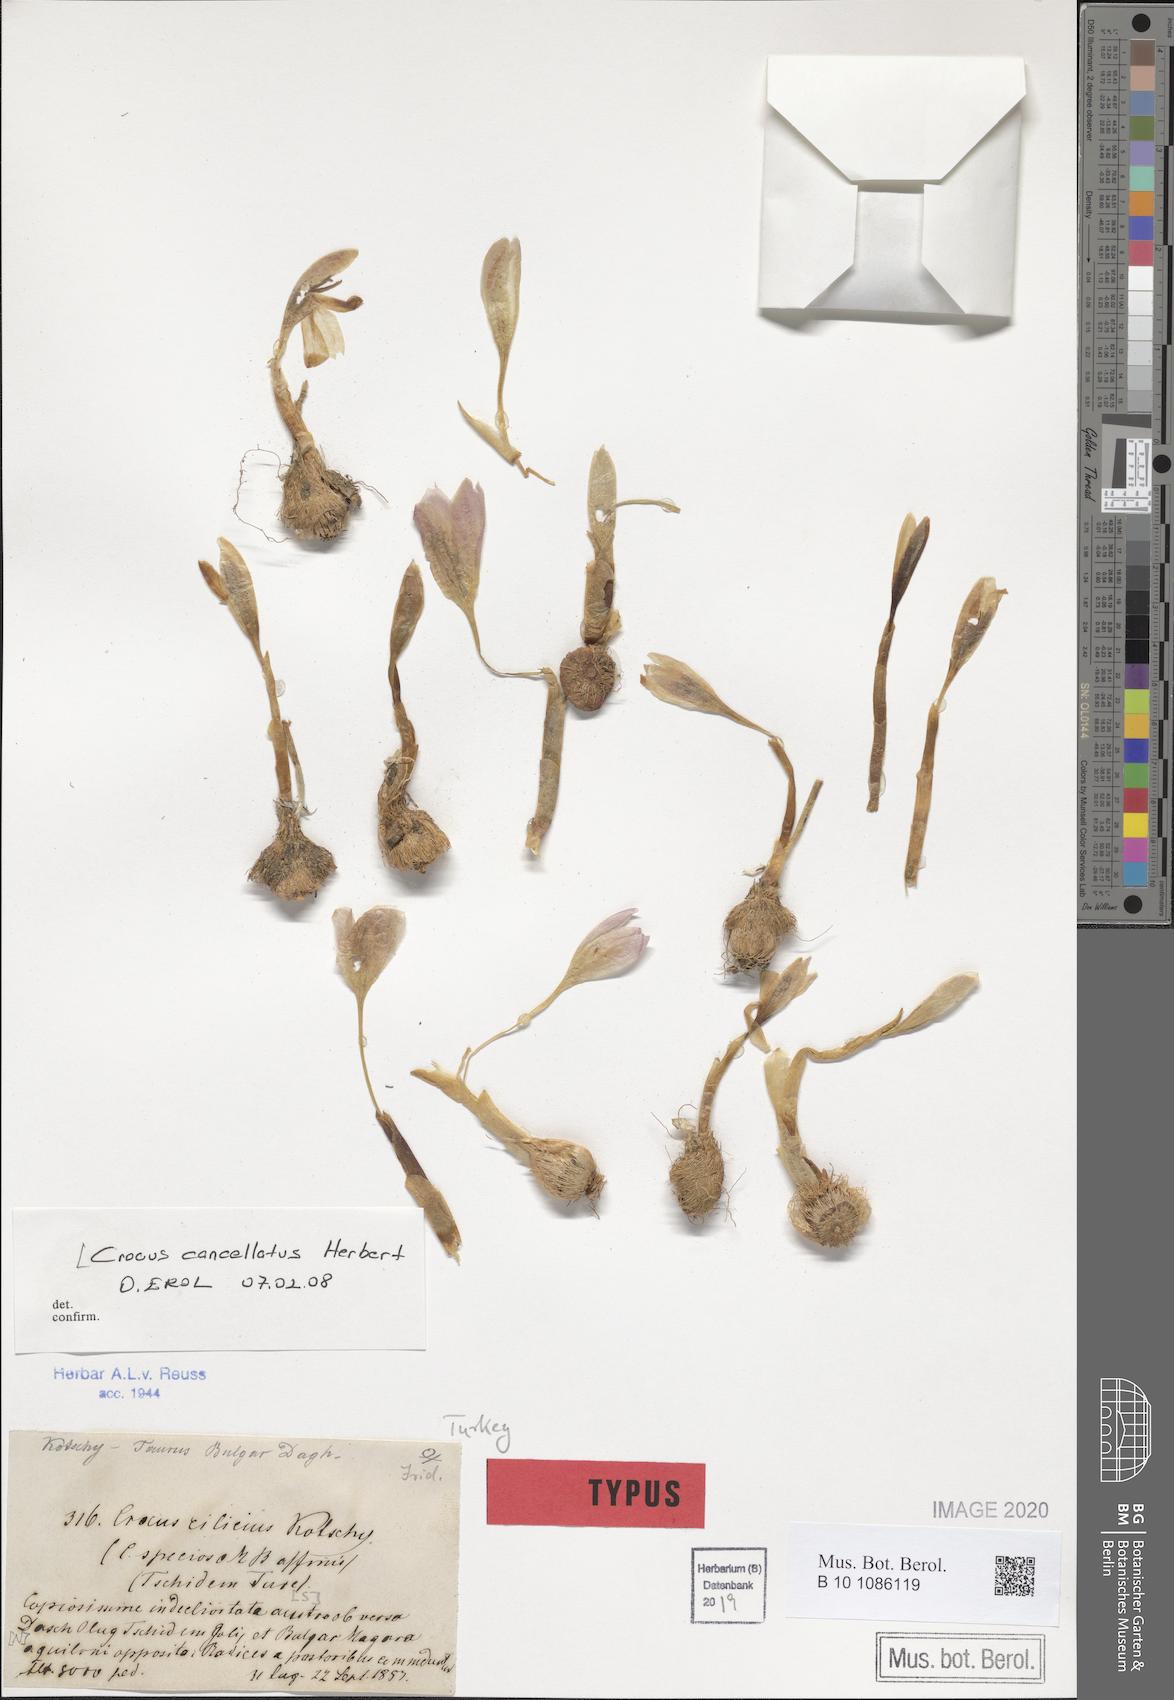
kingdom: Plantae
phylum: Tracheophyta
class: Liliopsida
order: Asparagales
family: Iridaceae
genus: Crocus
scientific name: Crocus cancellatus
